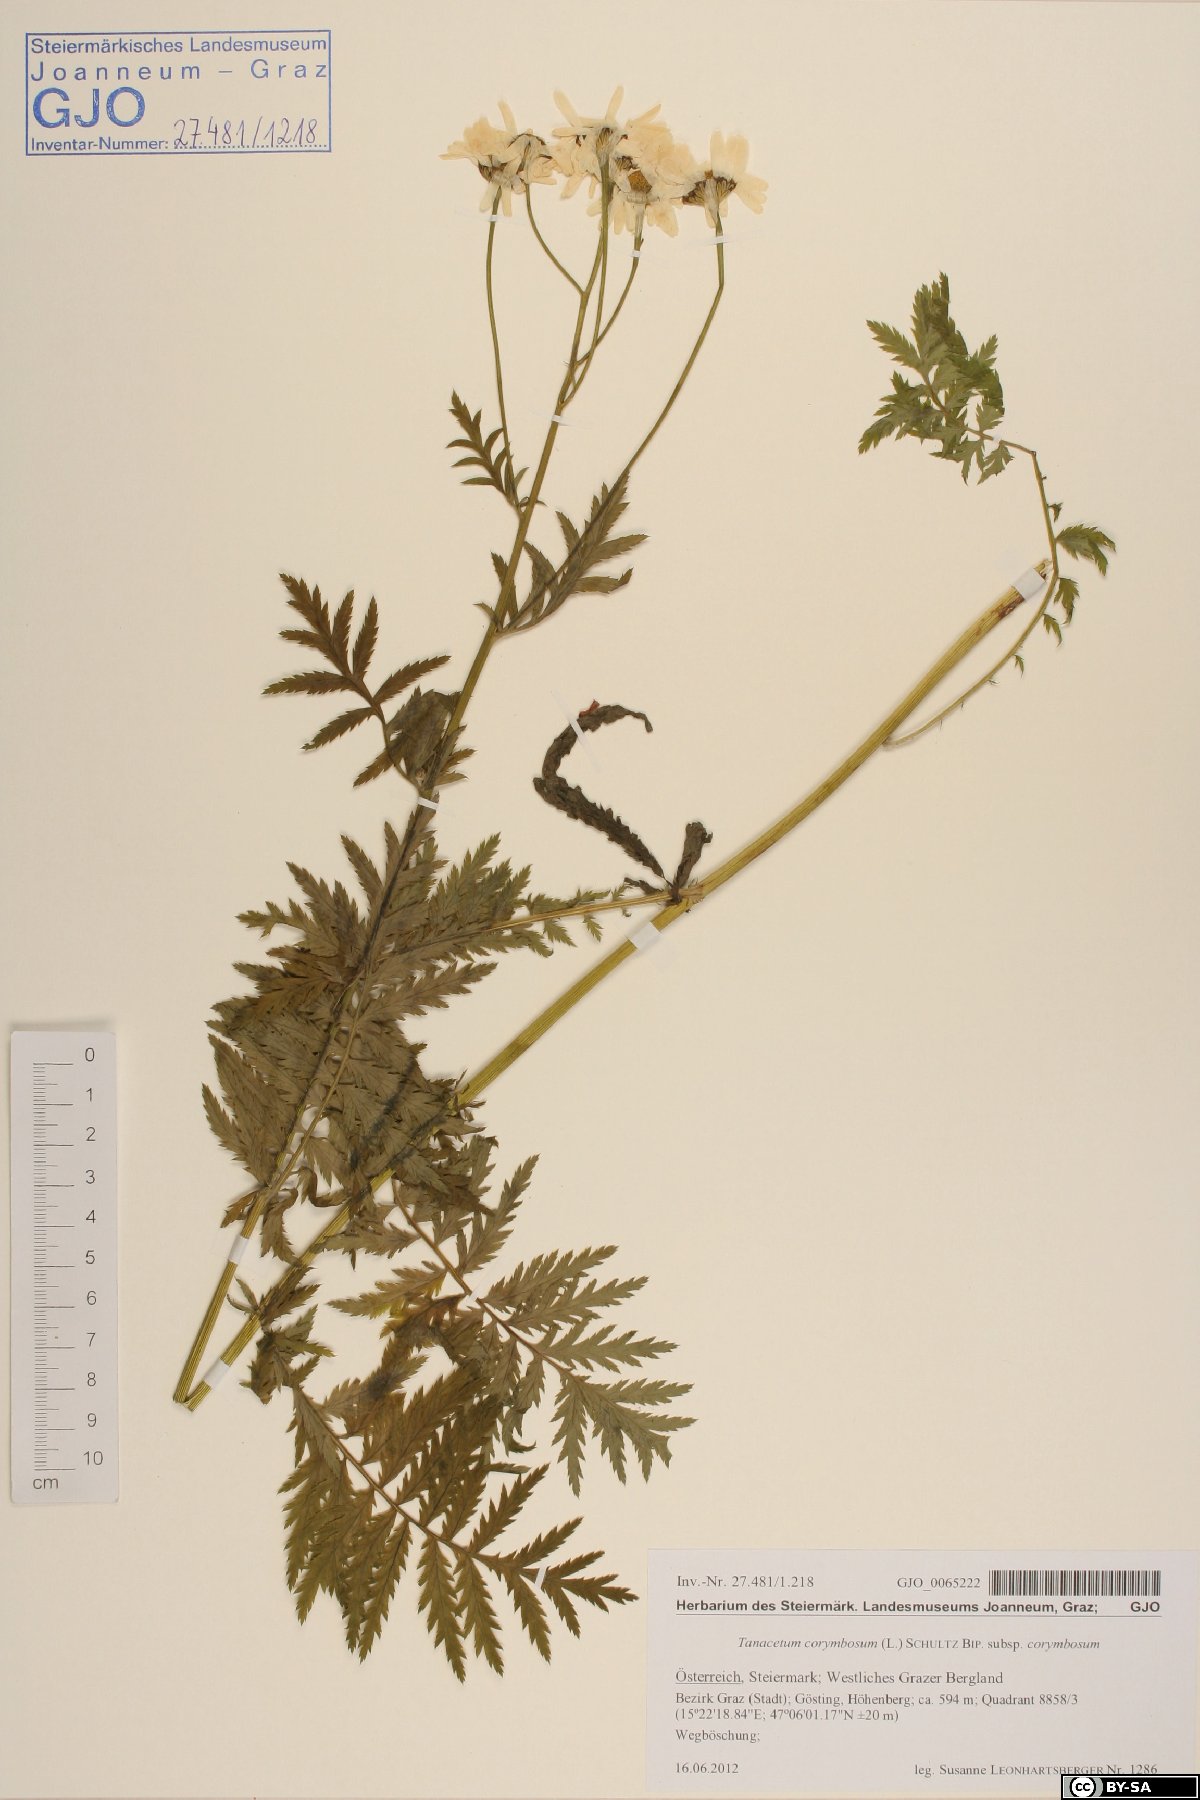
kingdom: Plantae
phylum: Tracheophyta
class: Magnoliopsida
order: Asterales
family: Asteraceae
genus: Tanacetum
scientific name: Tanacetum corymbosum
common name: Scentless feverfew
